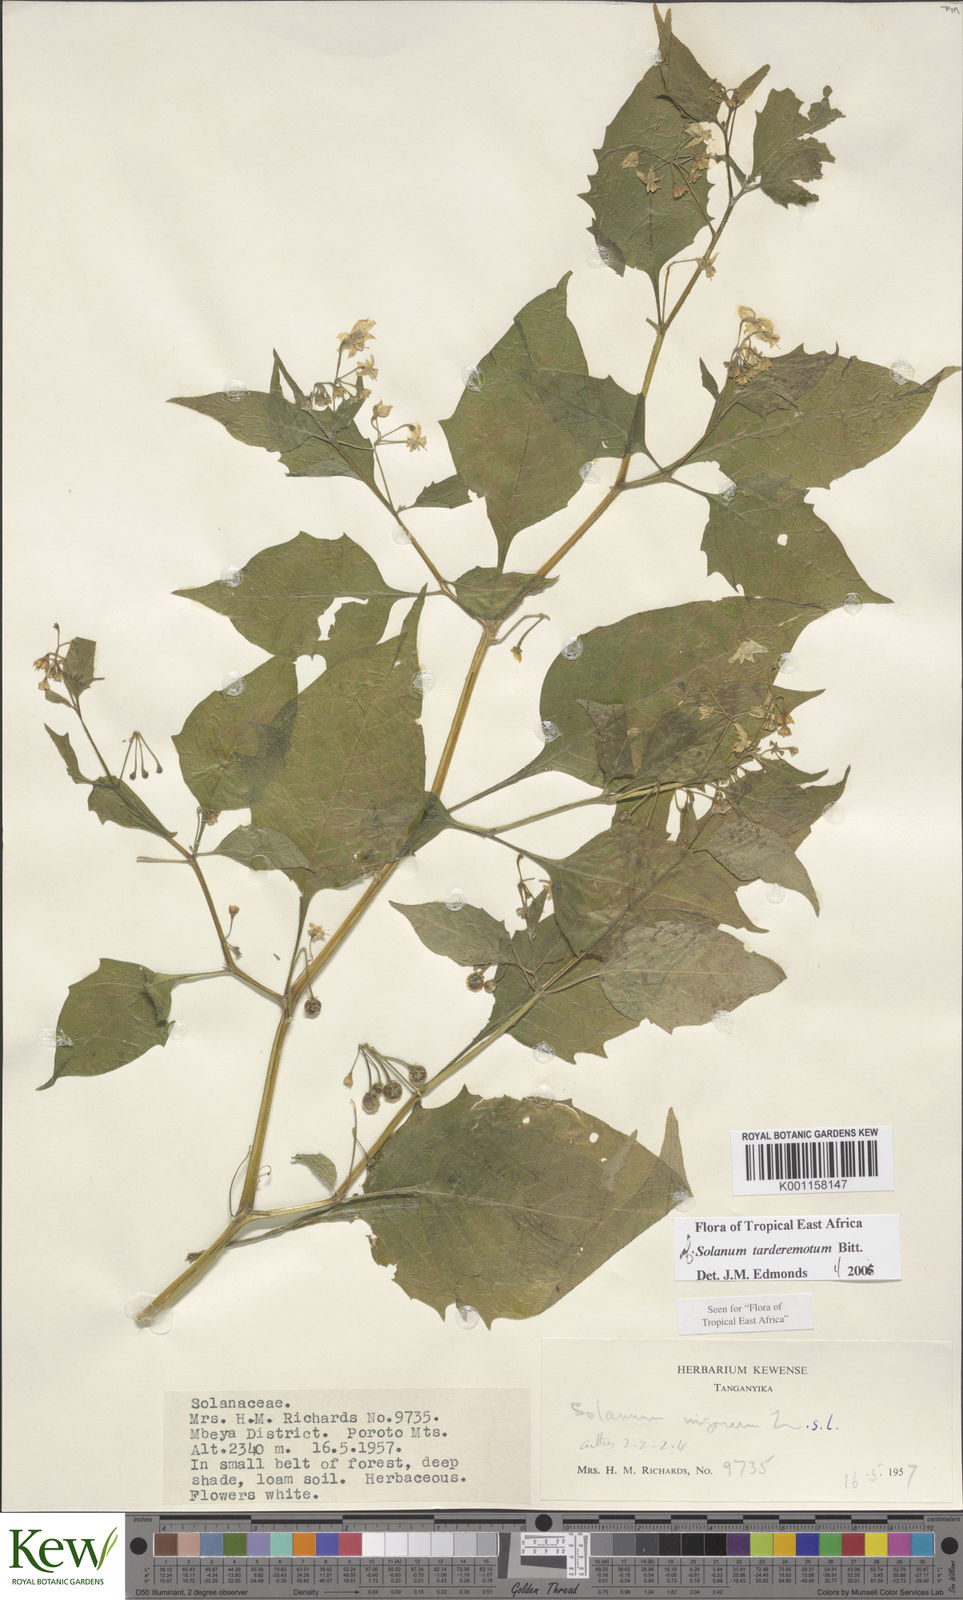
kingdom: Plantae
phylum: Tracheophyta
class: Magnoliopsida
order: Solanales
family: Solanaceae
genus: Solanum
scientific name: Solanum tarderemotum
